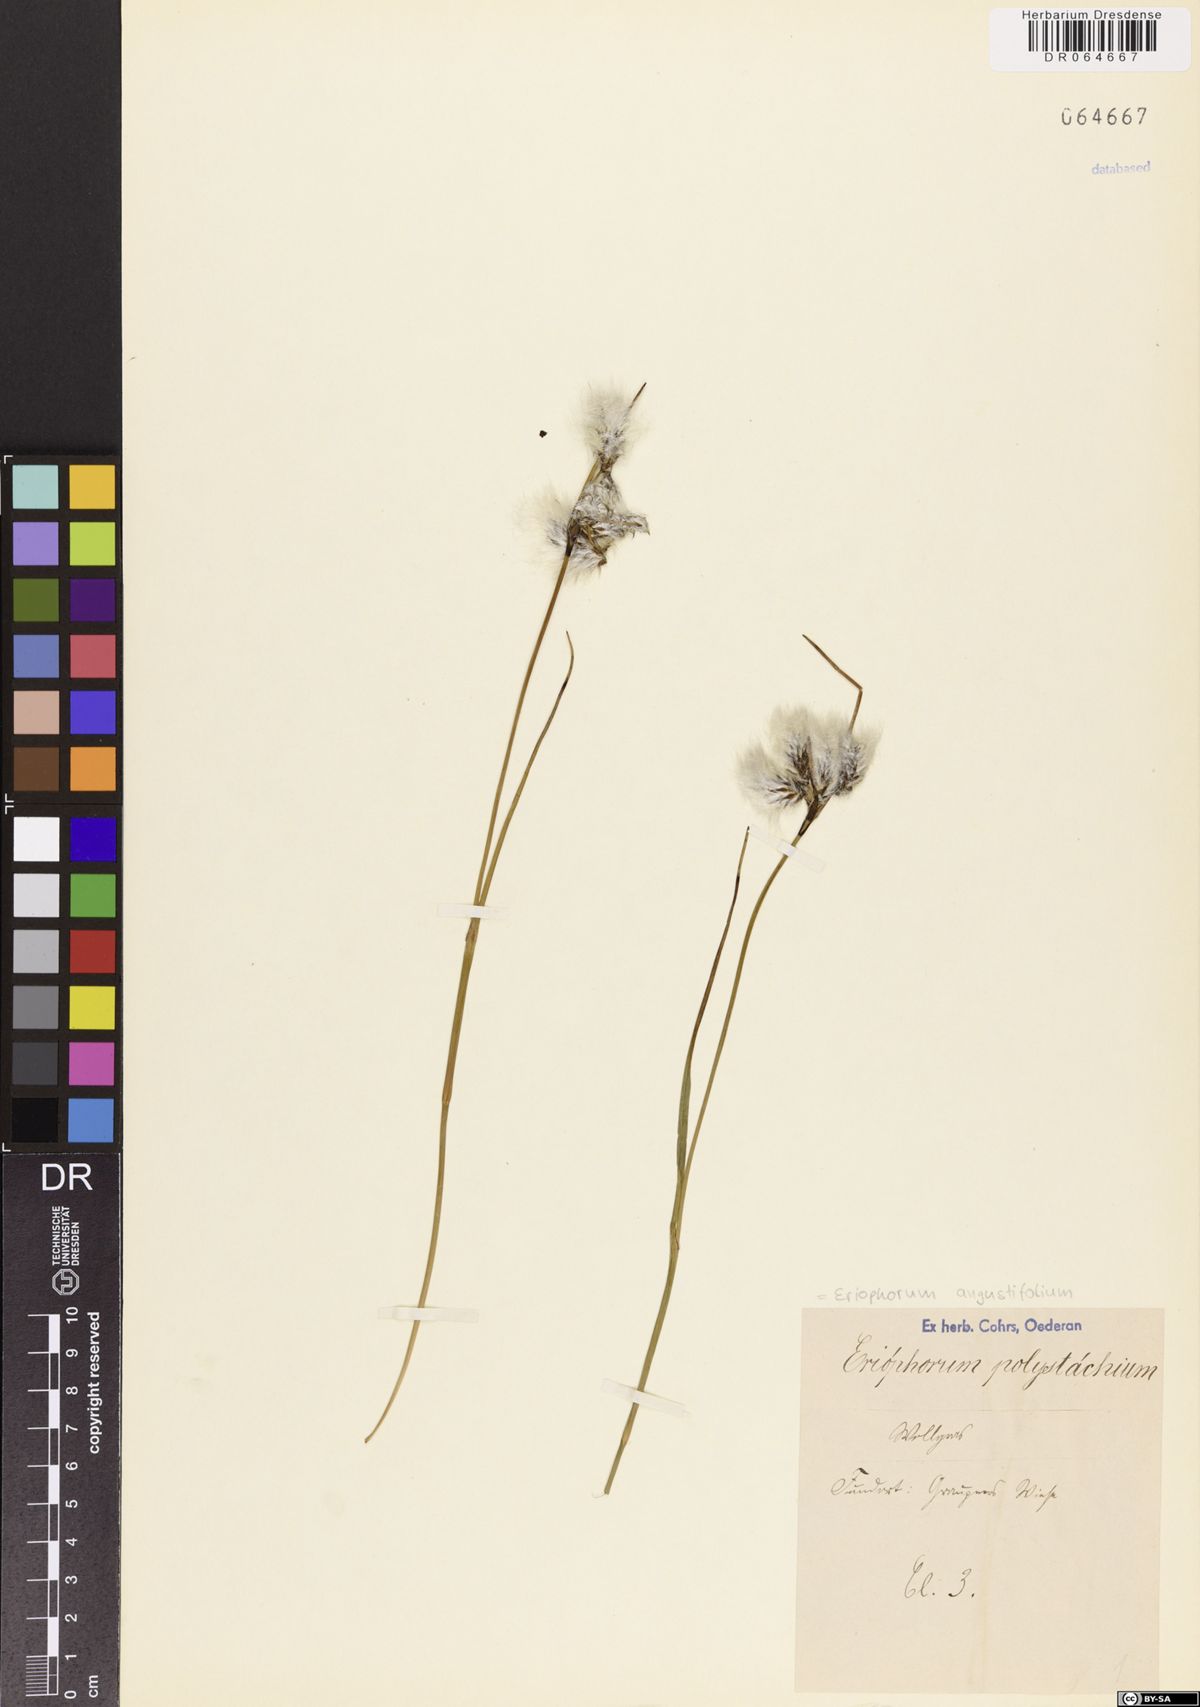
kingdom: Plantae
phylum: Tracheophyta
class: Liliopsida
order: Poales
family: Cyperaceae
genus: Eriophorum
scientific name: Eriophorum angustifolium
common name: Common cottongrass
